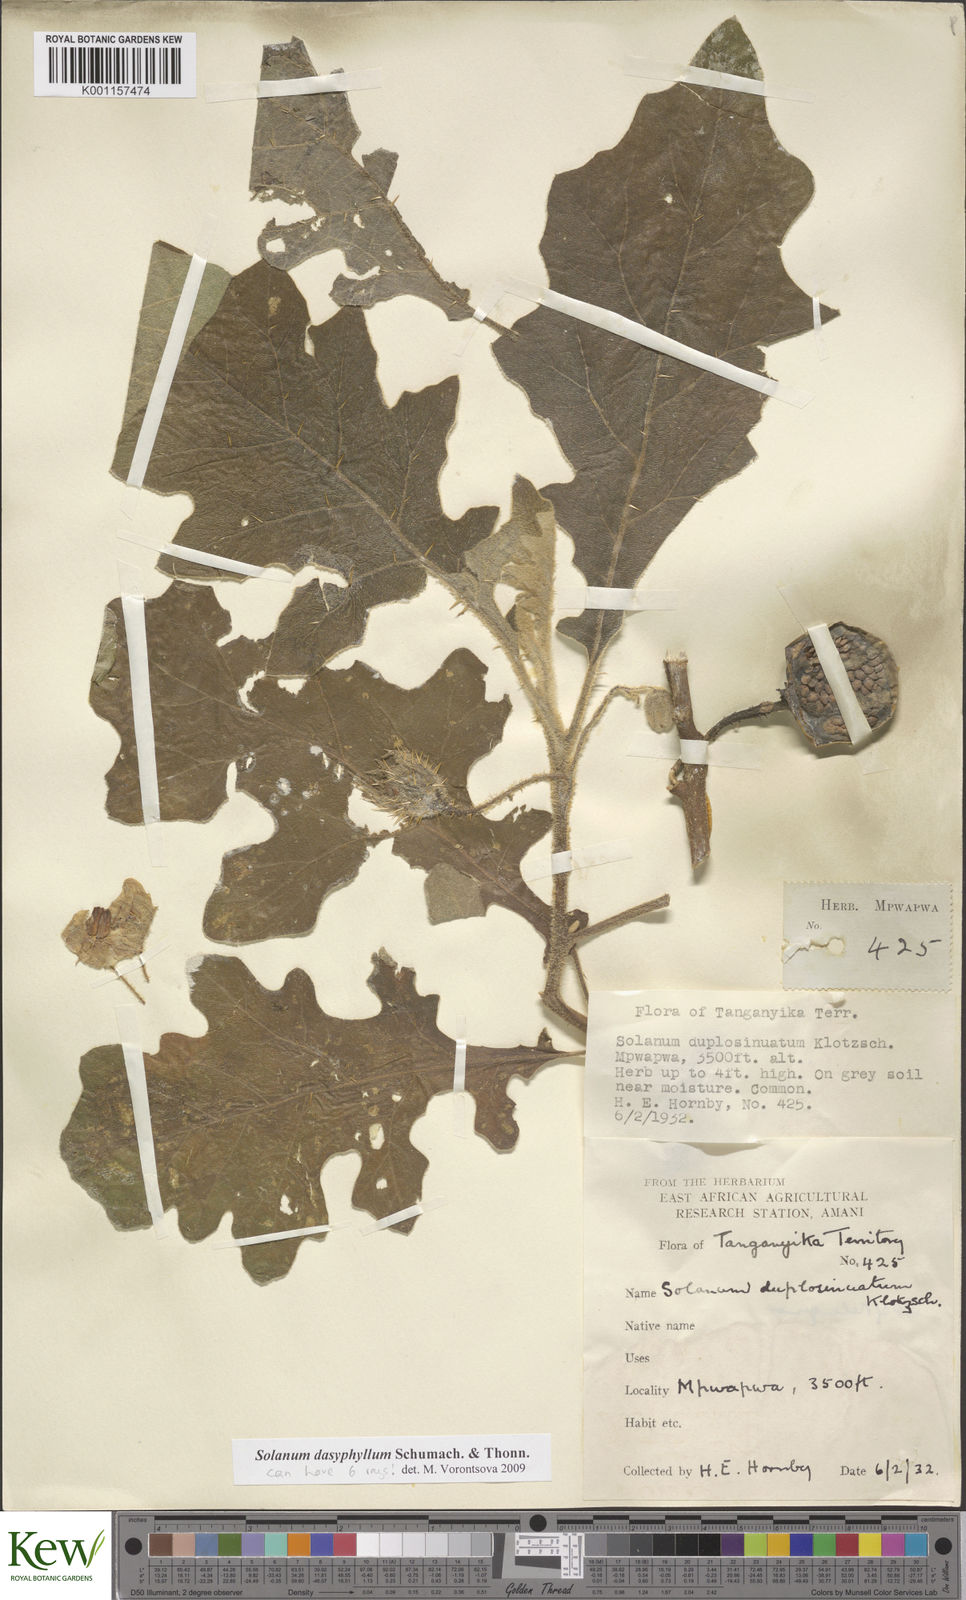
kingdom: Plantae
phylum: Tracheophyta
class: Magnoliopsida
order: Solanales
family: Solanaceae
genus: Solanum
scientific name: Solanum dasyphyllum
